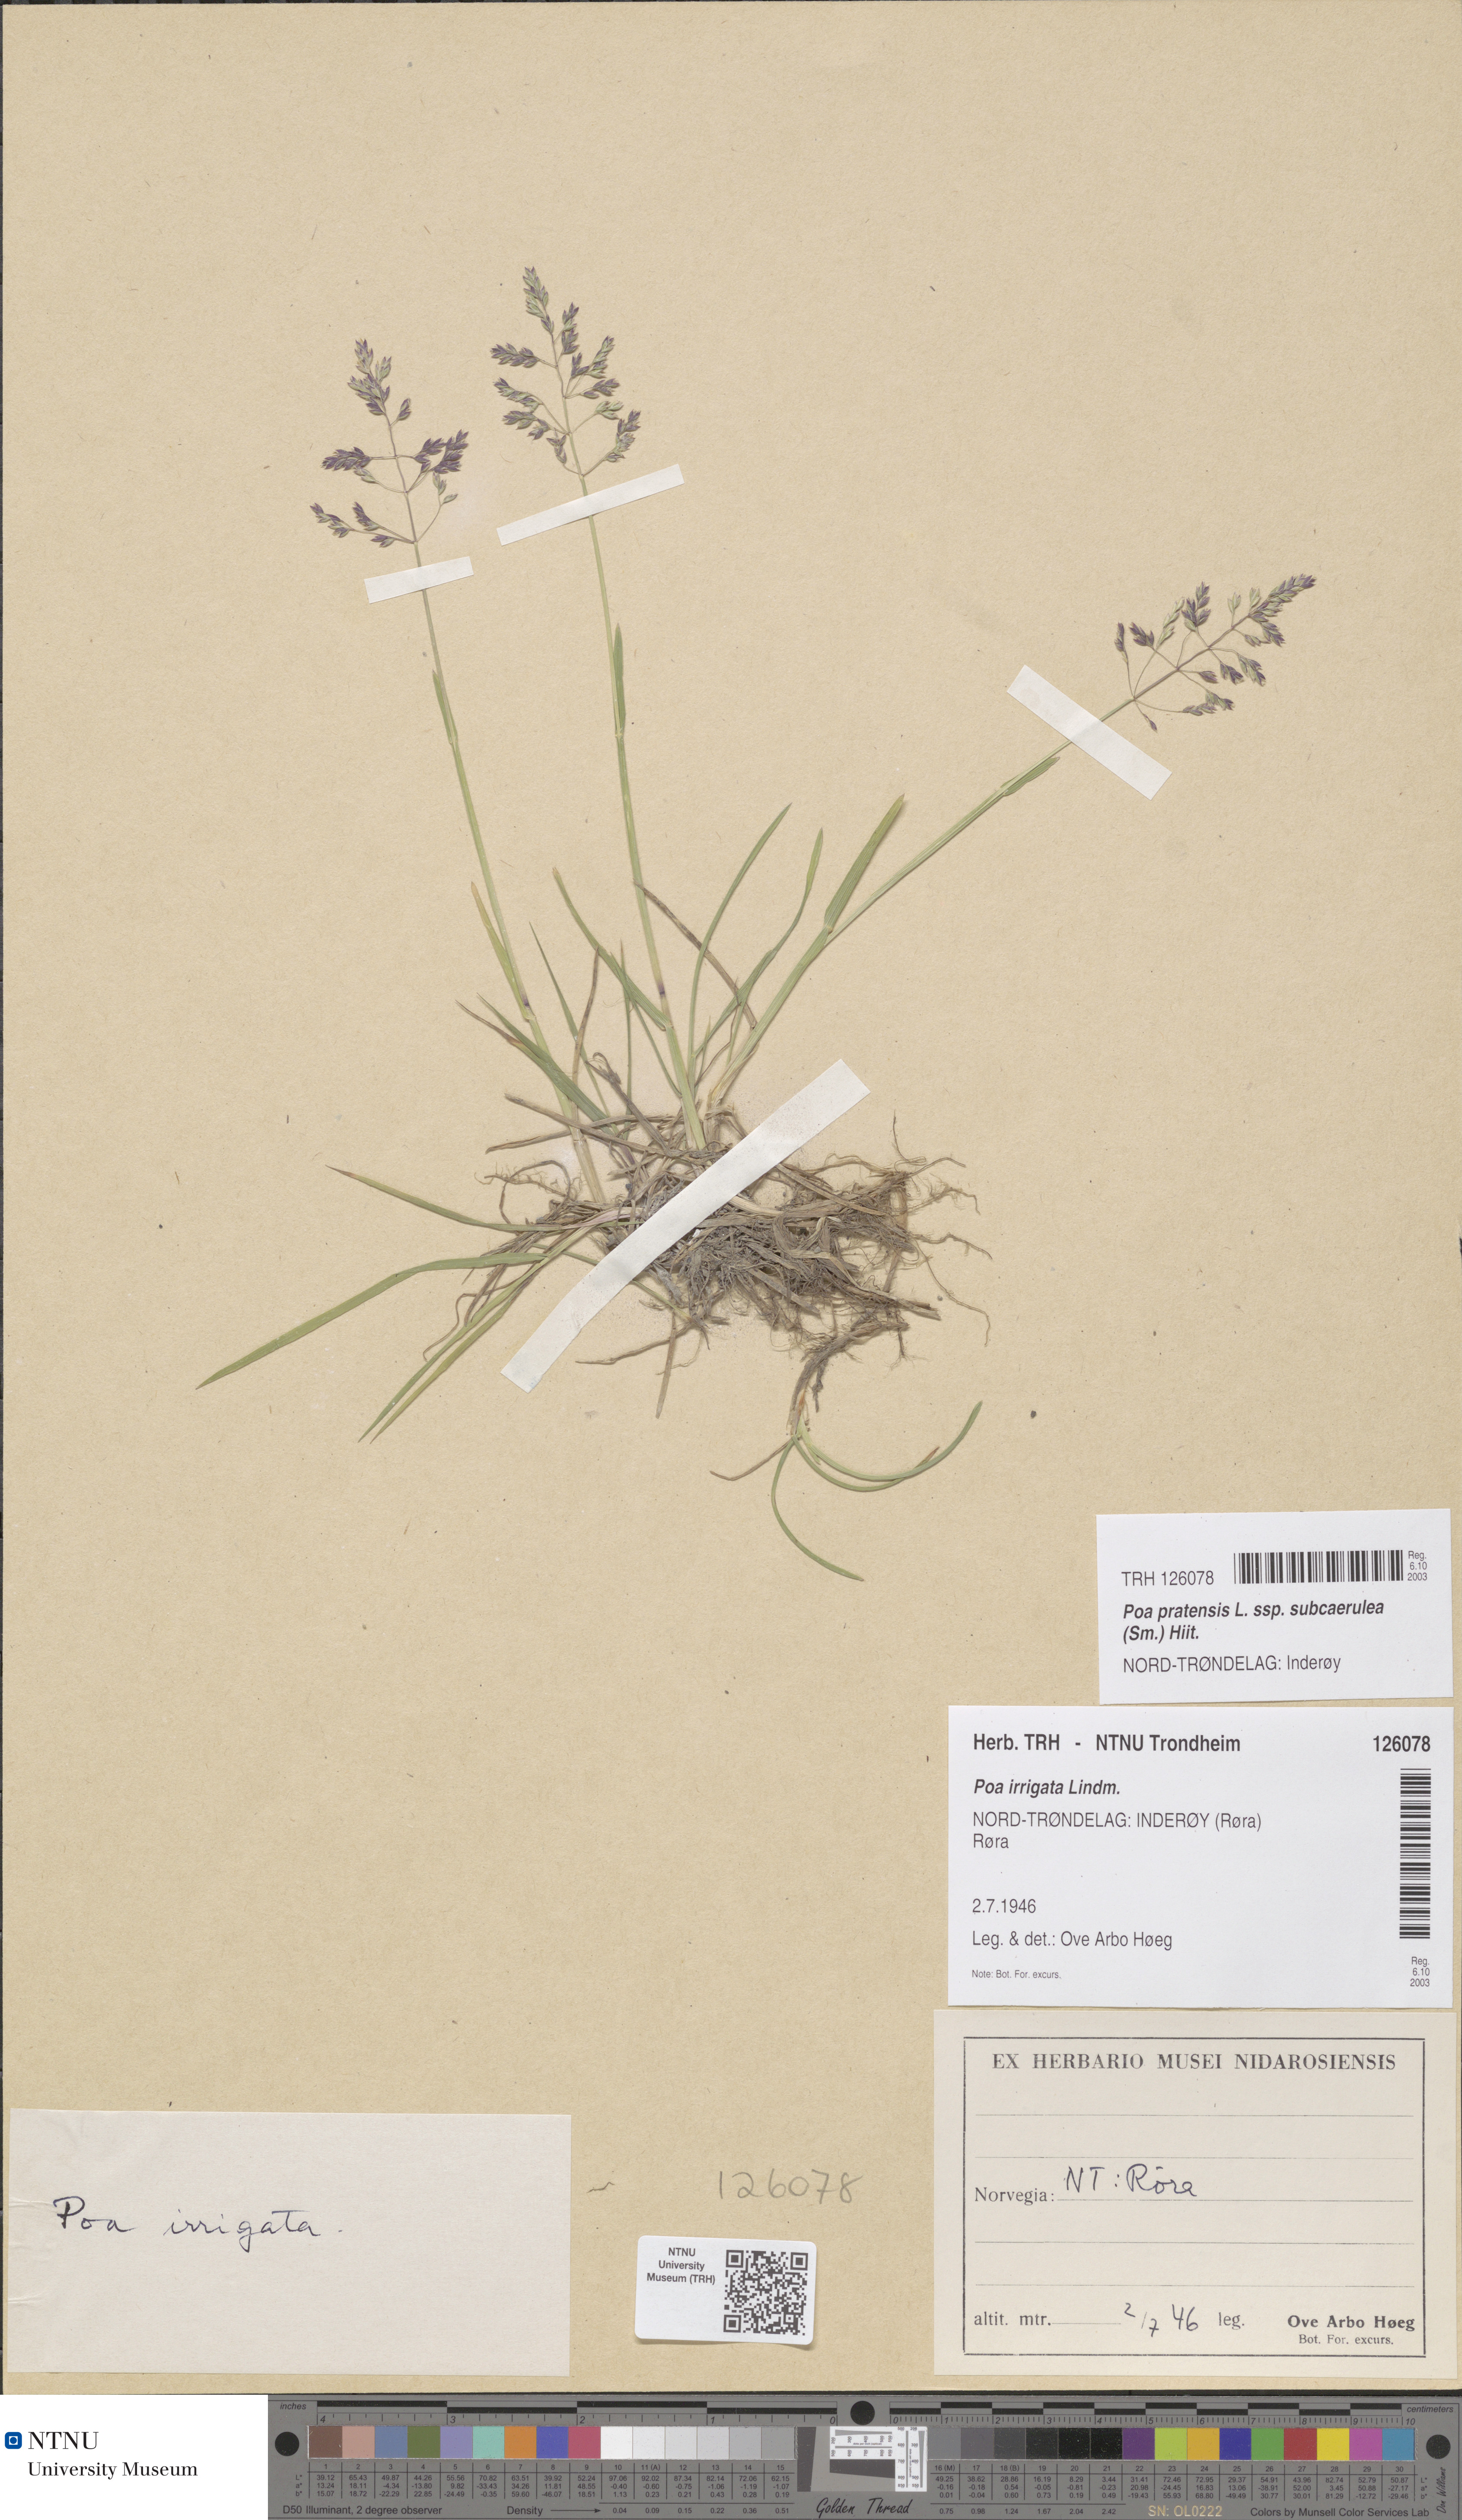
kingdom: Plantae
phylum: Tracheophyta
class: Liliopsida
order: Poales
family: Poaceae
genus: Poa
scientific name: Poa humilis
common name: Spreading meadow-grass
